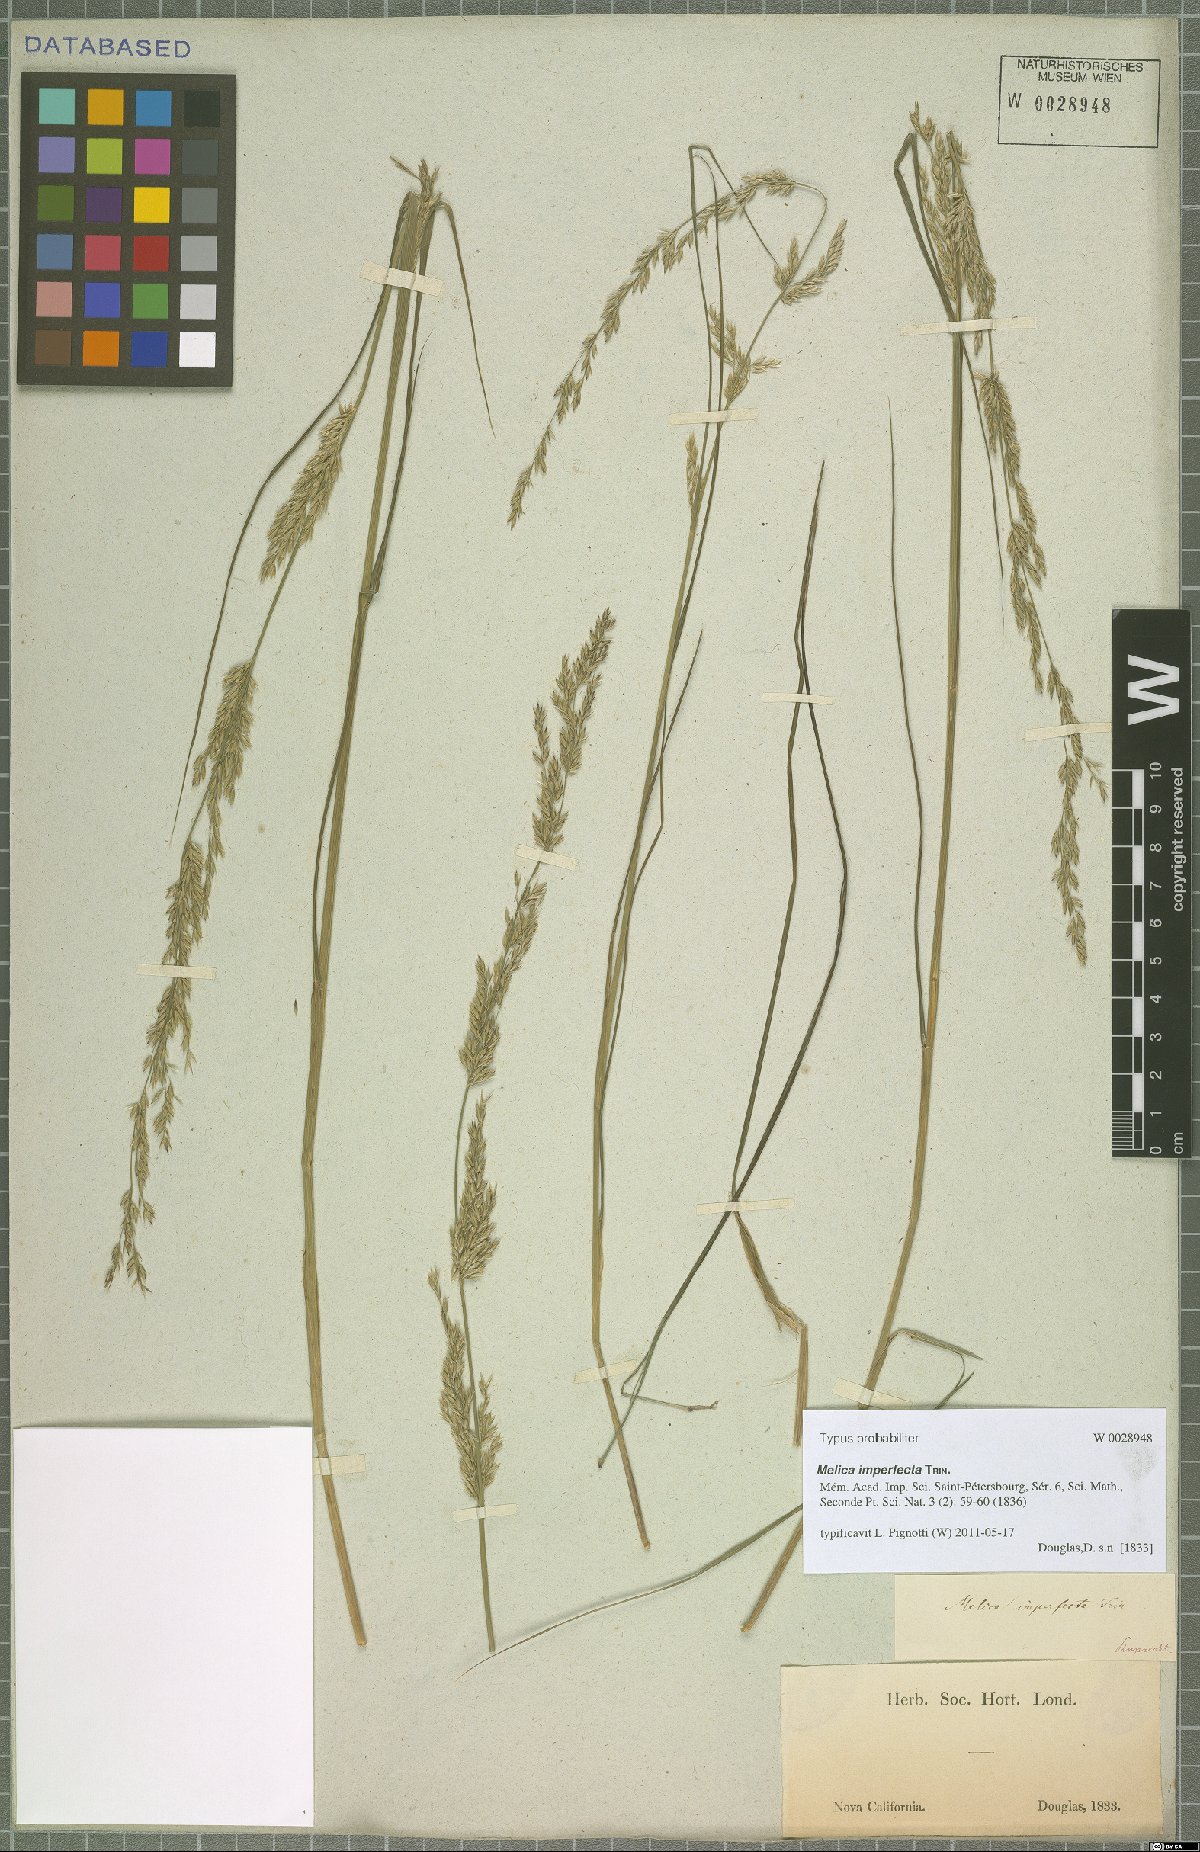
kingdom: Plantae
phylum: Tracheophyta
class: Liliopsida
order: Poales
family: Poaceae
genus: Melica
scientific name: Melica imperfecta
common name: California melic
